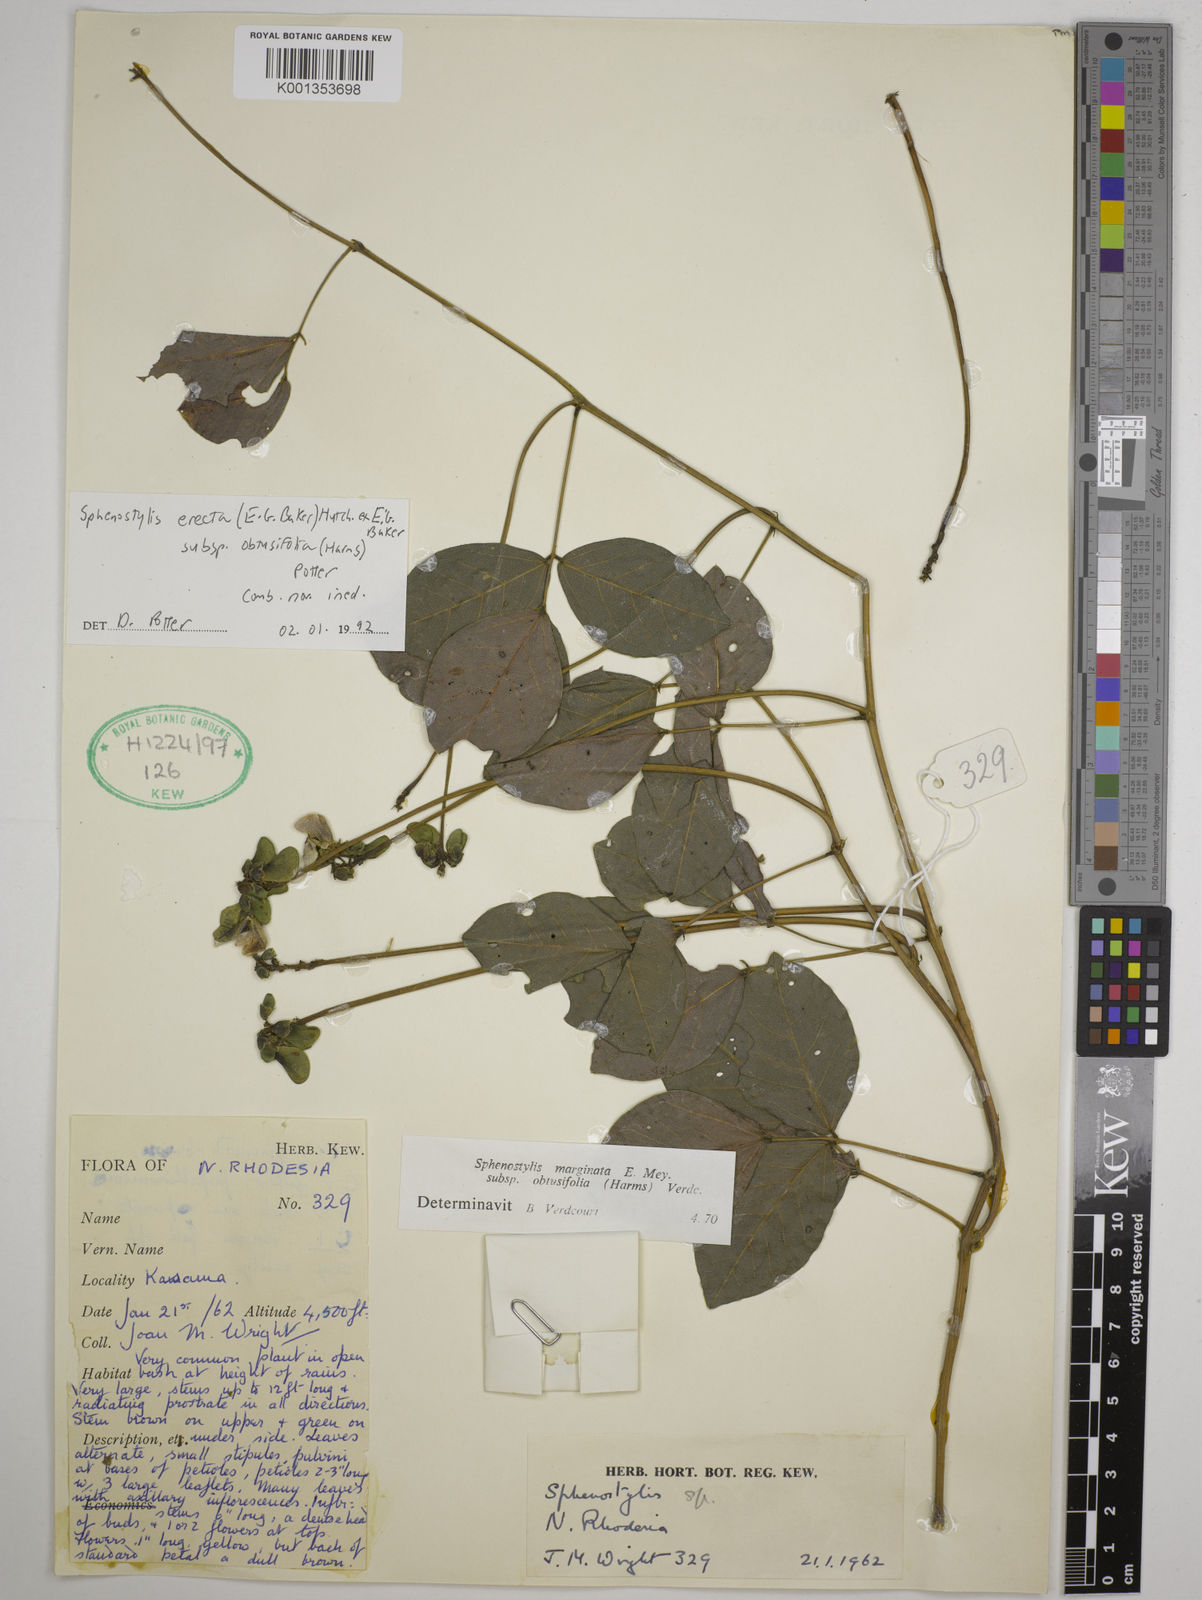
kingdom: Plantae
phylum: Tracheophyta
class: Magnoliopsida
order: Fabales
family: Fabaceae
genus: Sphenostylis
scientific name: Sphenostylis erecta
